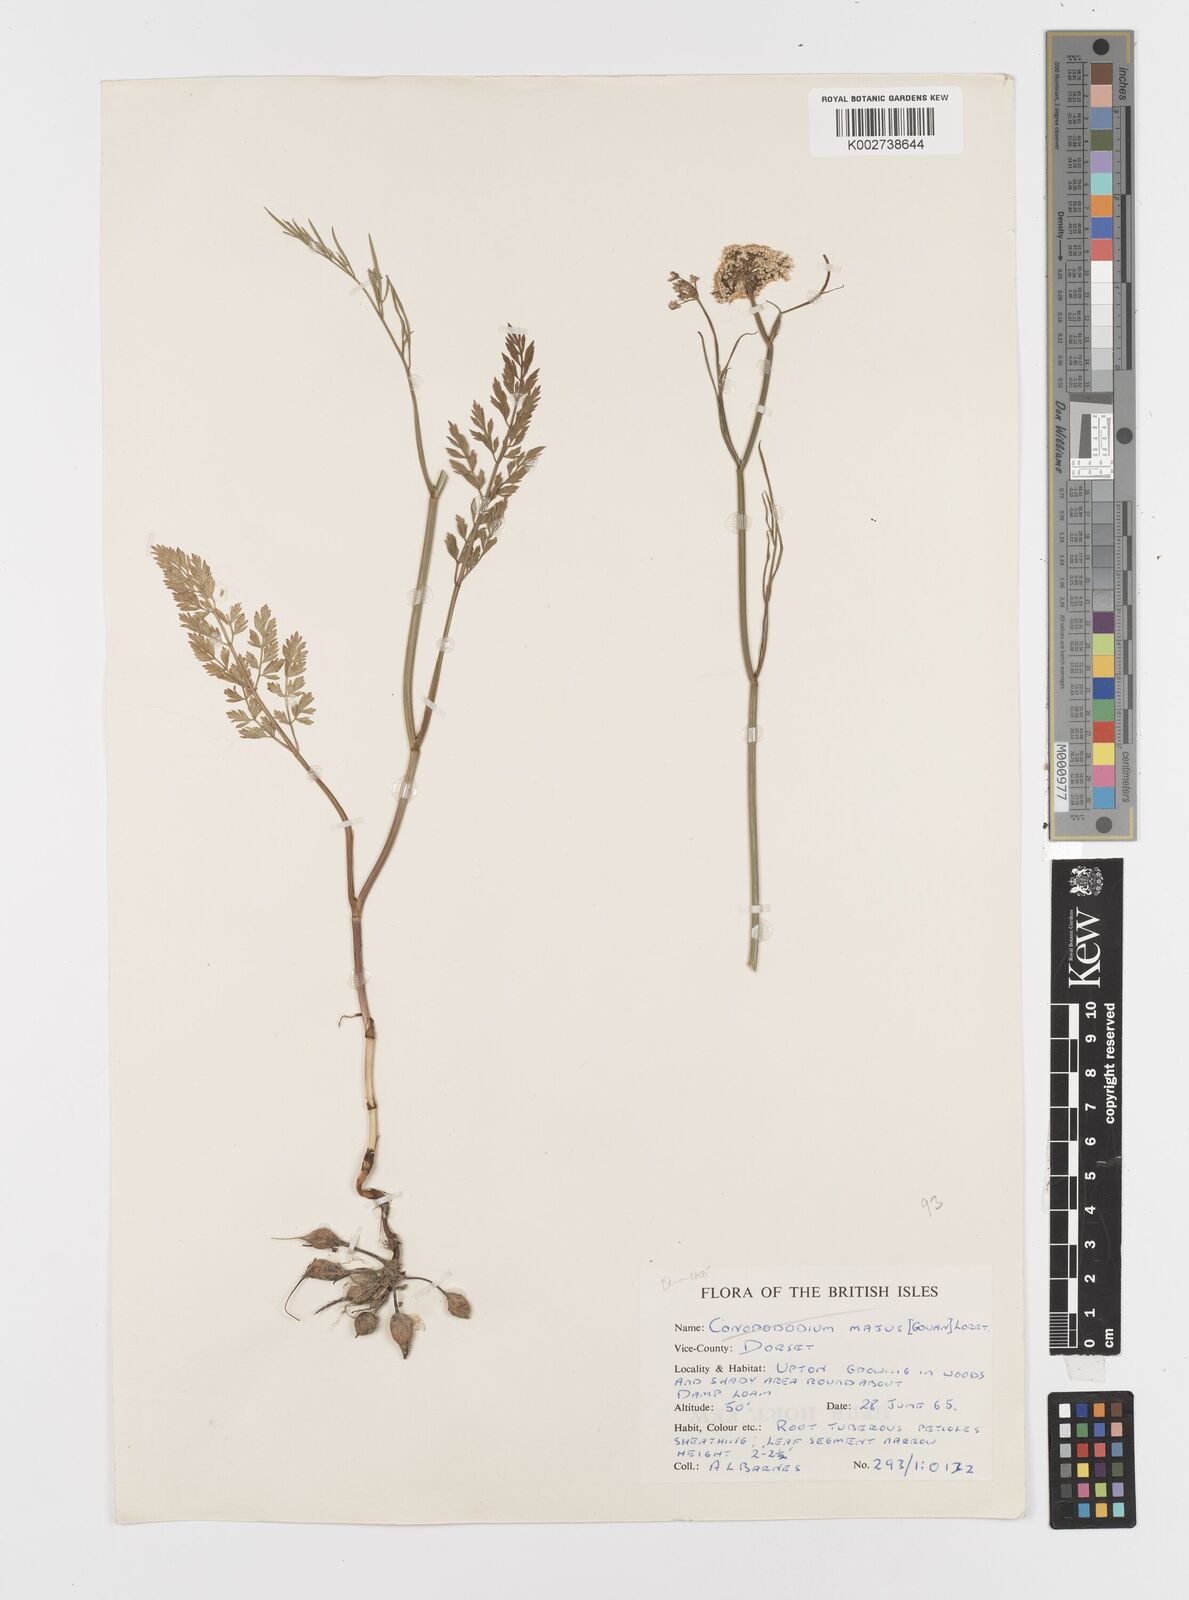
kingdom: Plantae
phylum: Tracheophyta
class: Magnoliopsida
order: Apiales
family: Apiaceae
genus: Oenanthe
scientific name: Oenanthe pimpinelloides
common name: Corky-fruited water-dropwort
